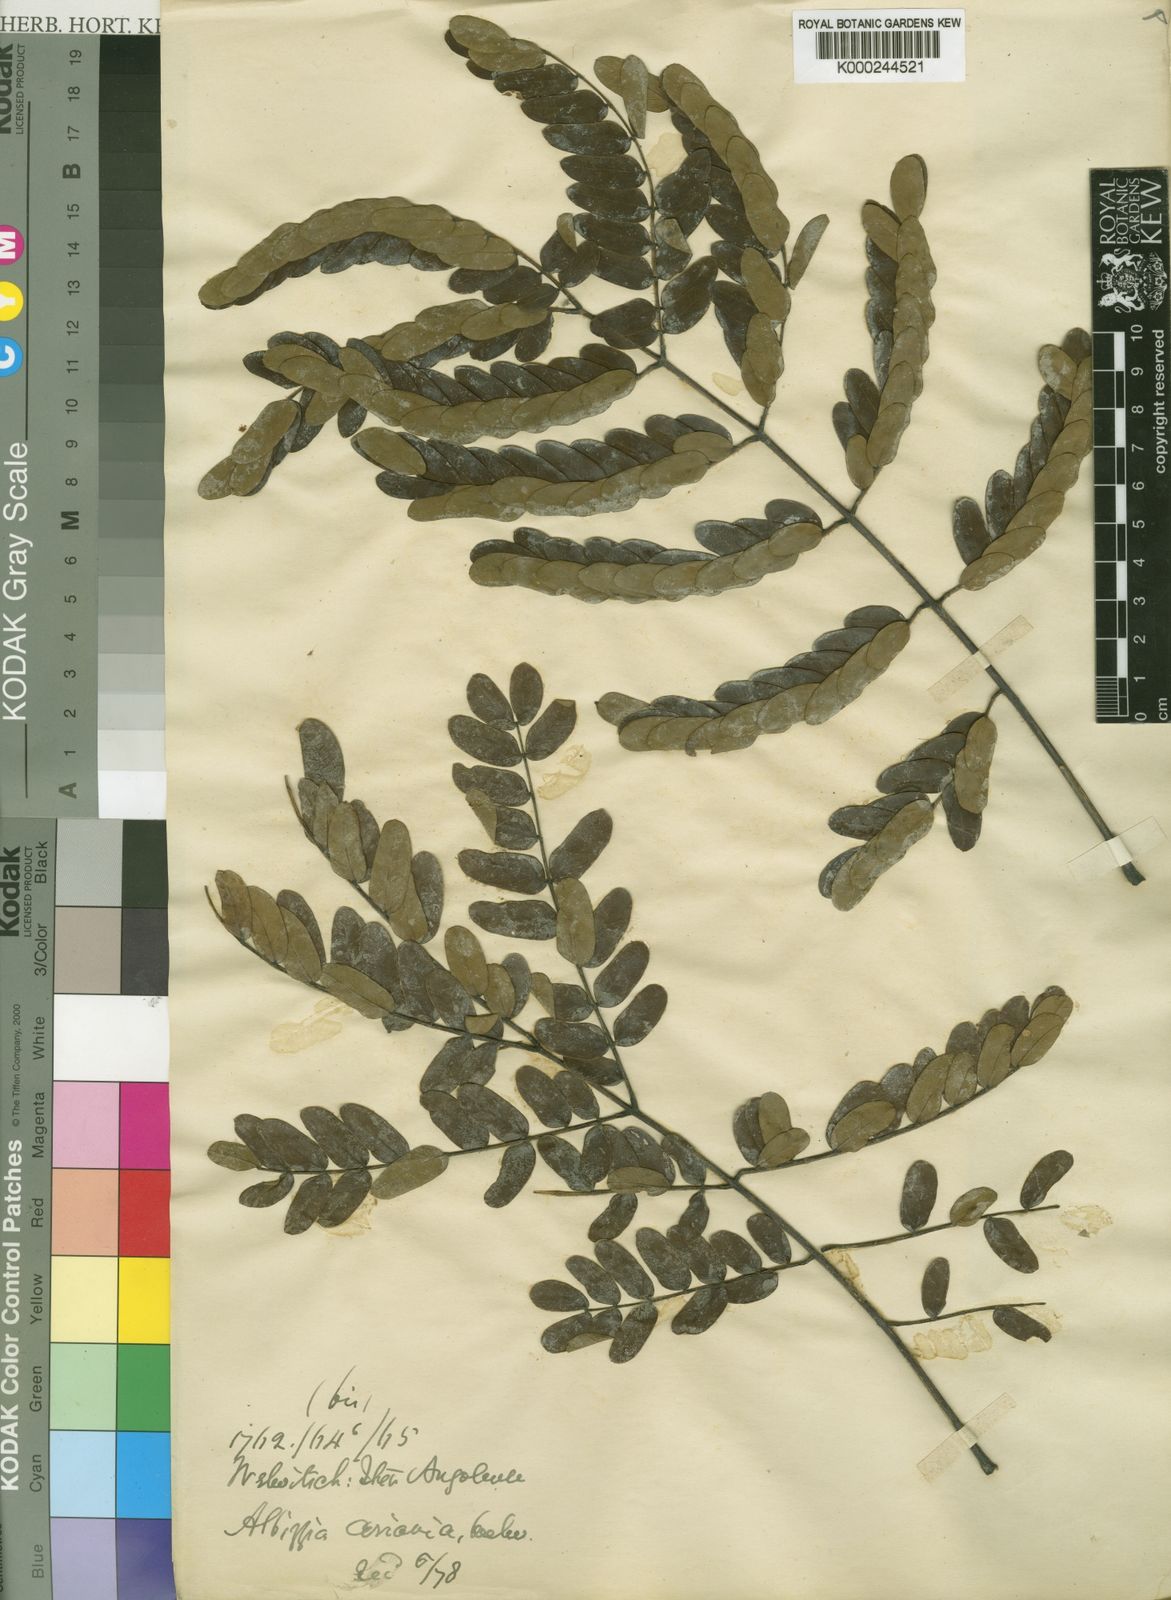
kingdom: Plantae
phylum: Tracheophyta
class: Magnoliopsida
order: Fabales
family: Fabaceae
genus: Albizia
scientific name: Albizia coriaria
